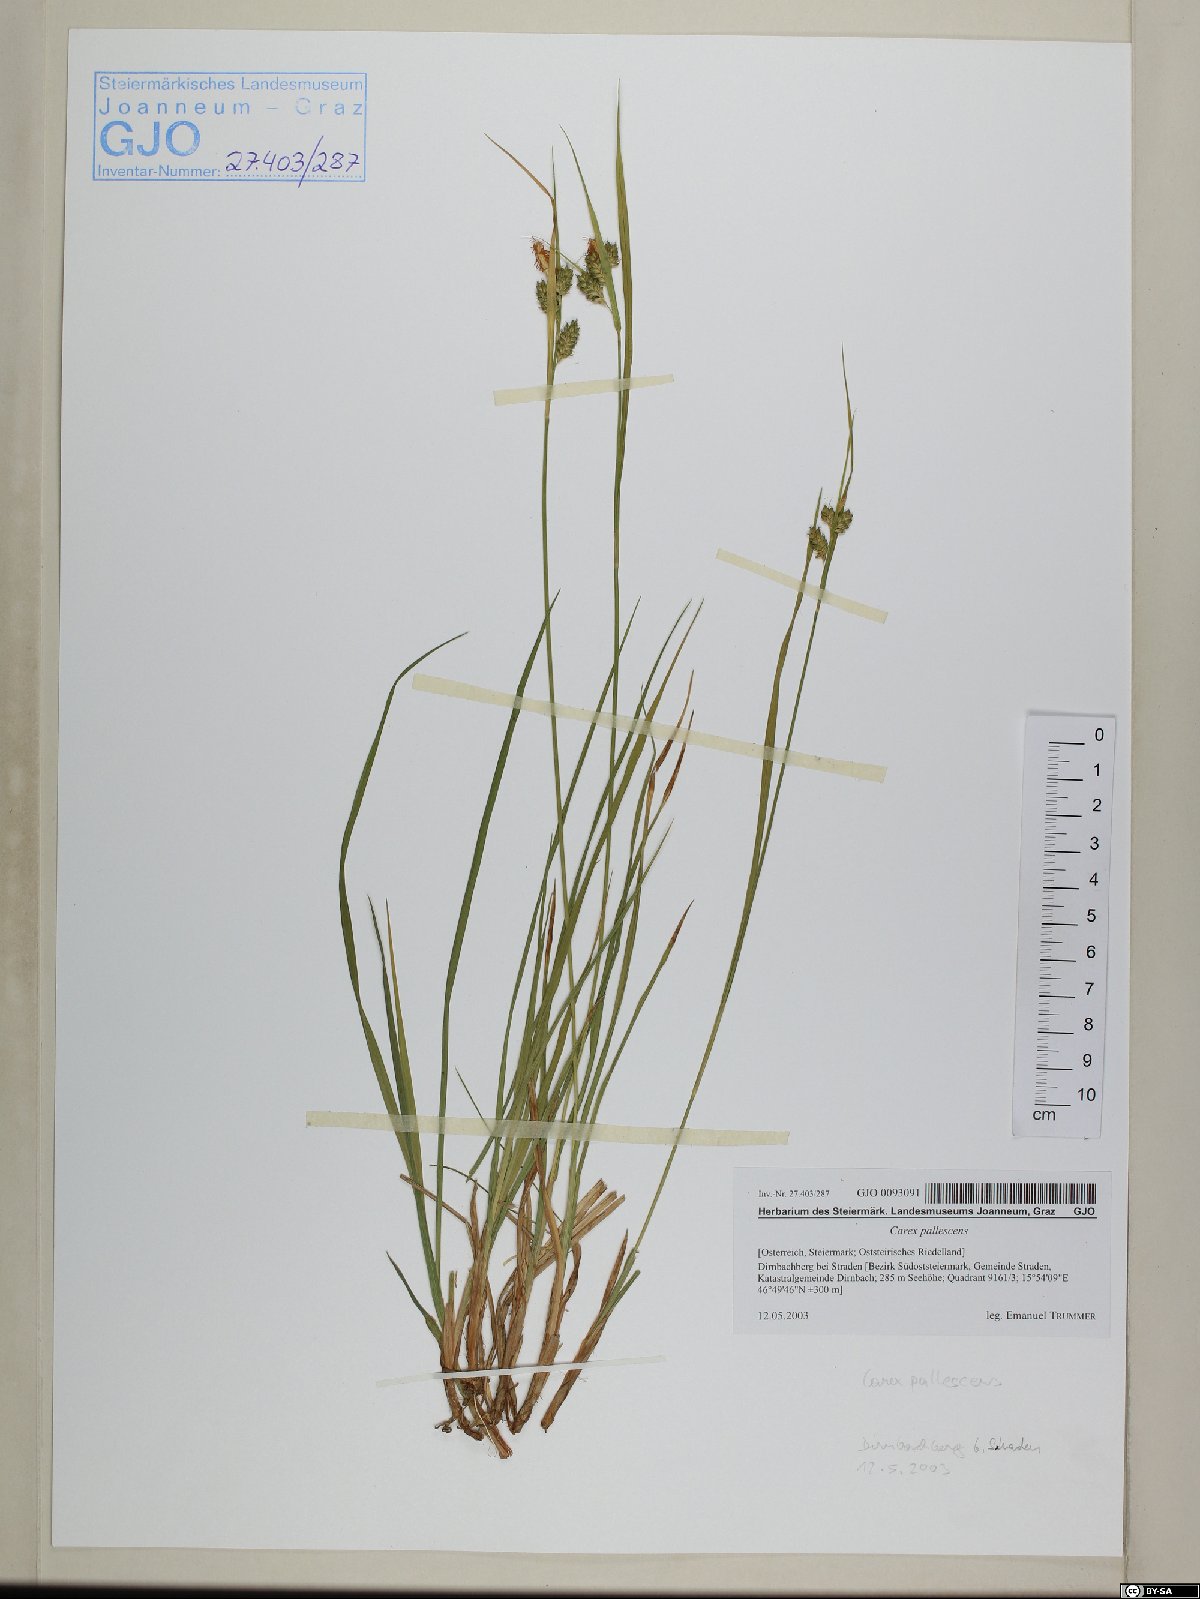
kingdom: Plantae
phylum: Tracheophyta
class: Liliopsida
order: Poales
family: Cyperaceae
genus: Carex
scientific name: Carex pallescens
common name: Pale sedge
